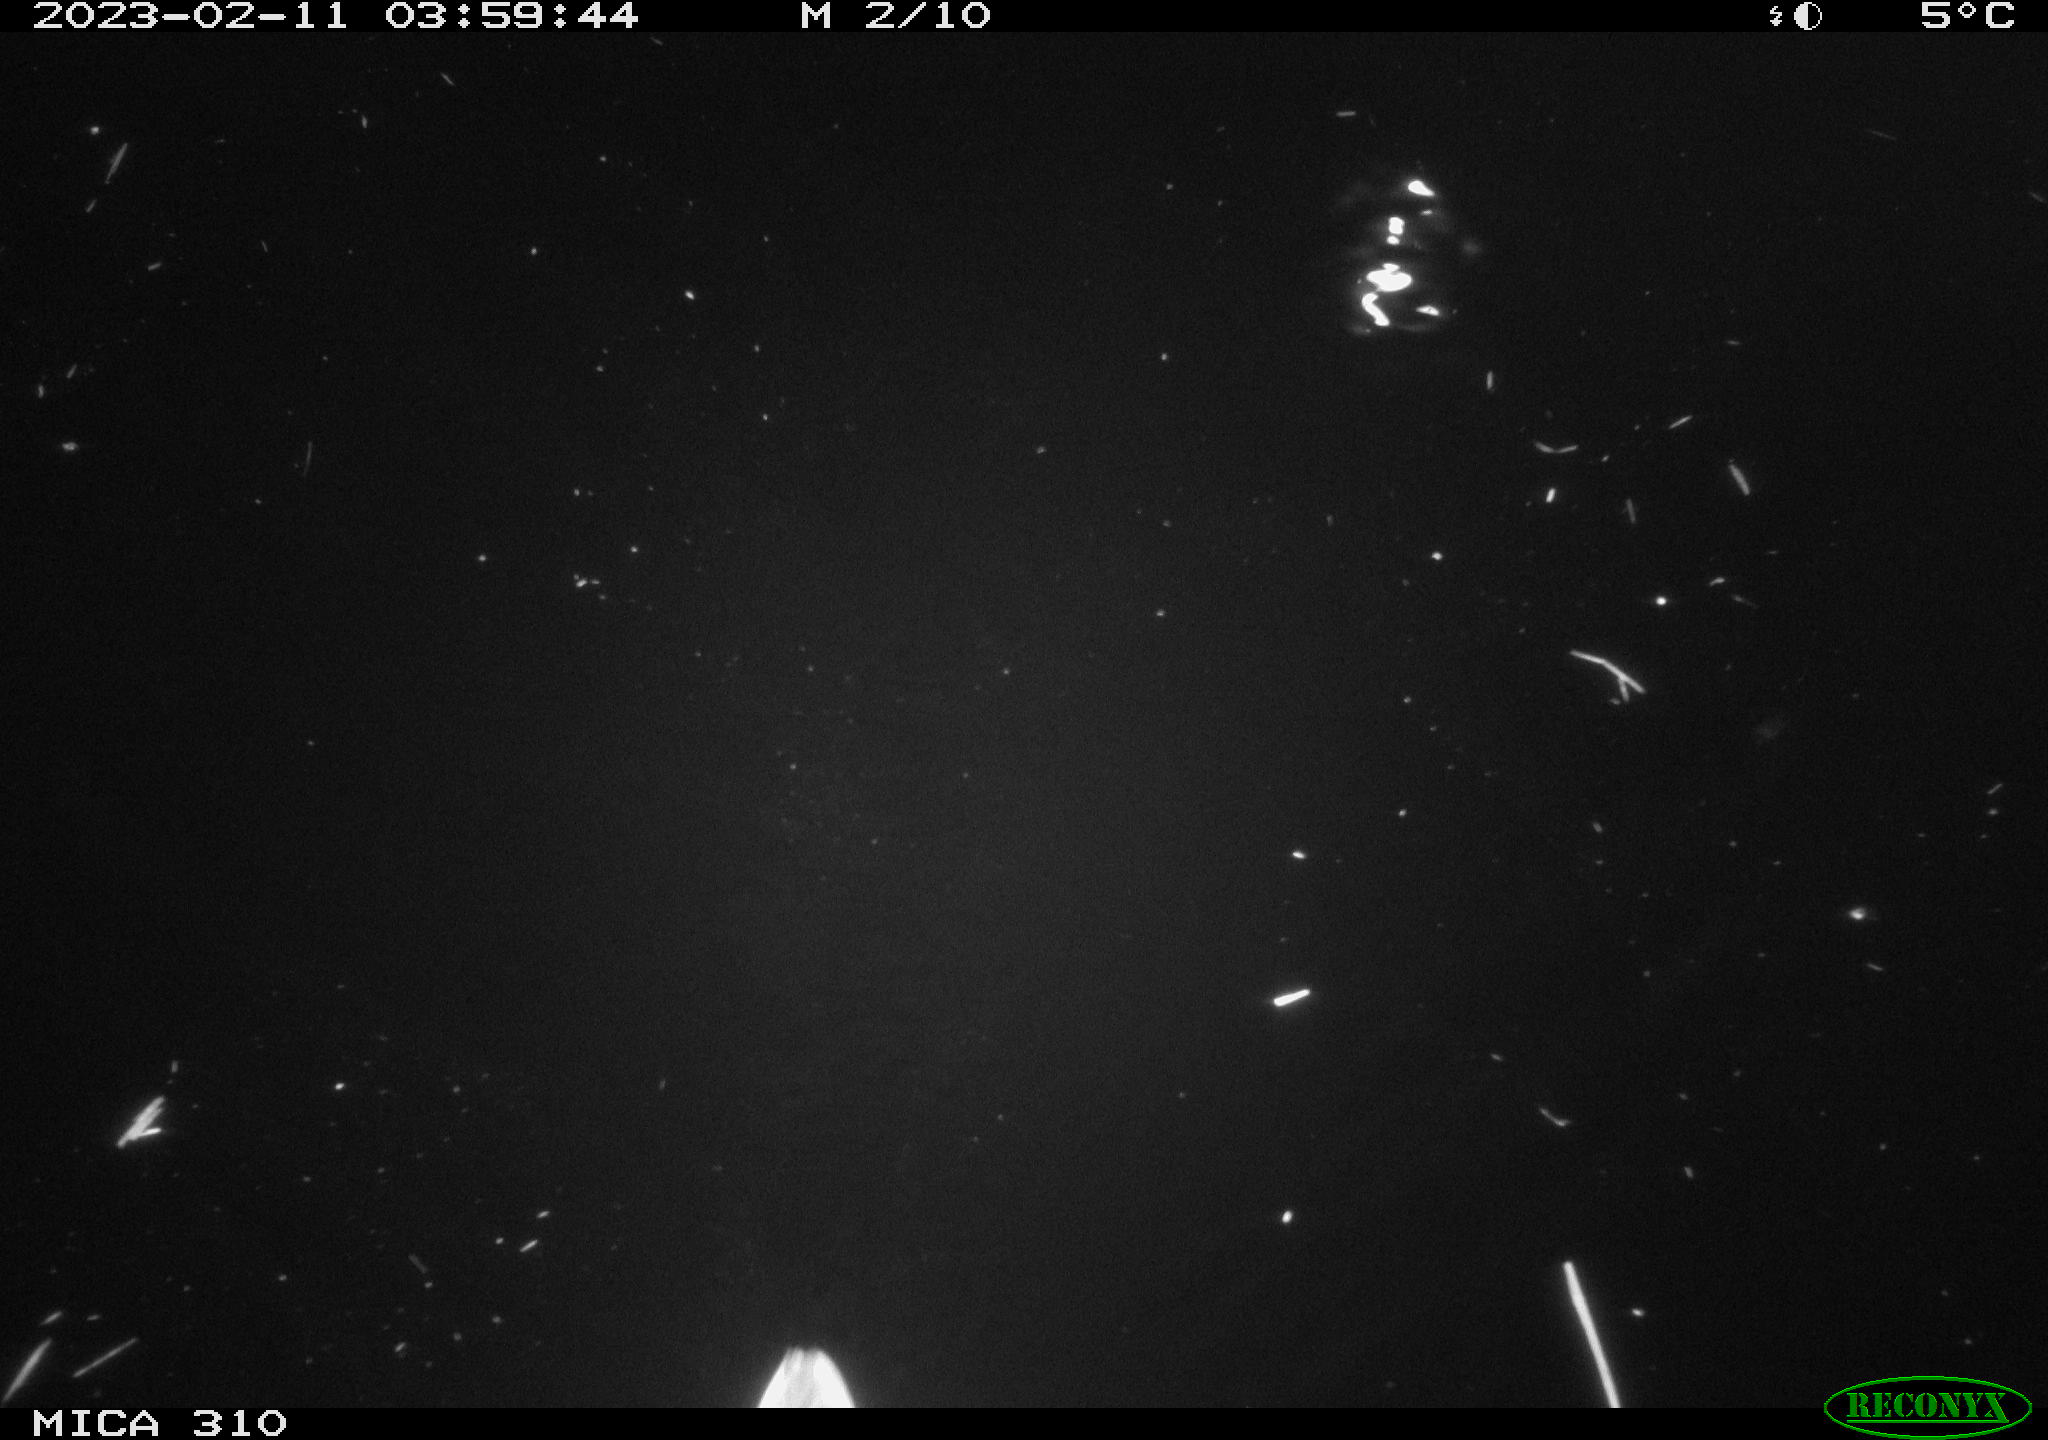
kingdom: Animalia
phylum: Chordata
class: Aves
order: Anseriformes
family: Anatidae
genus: Anas
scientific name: Anas
